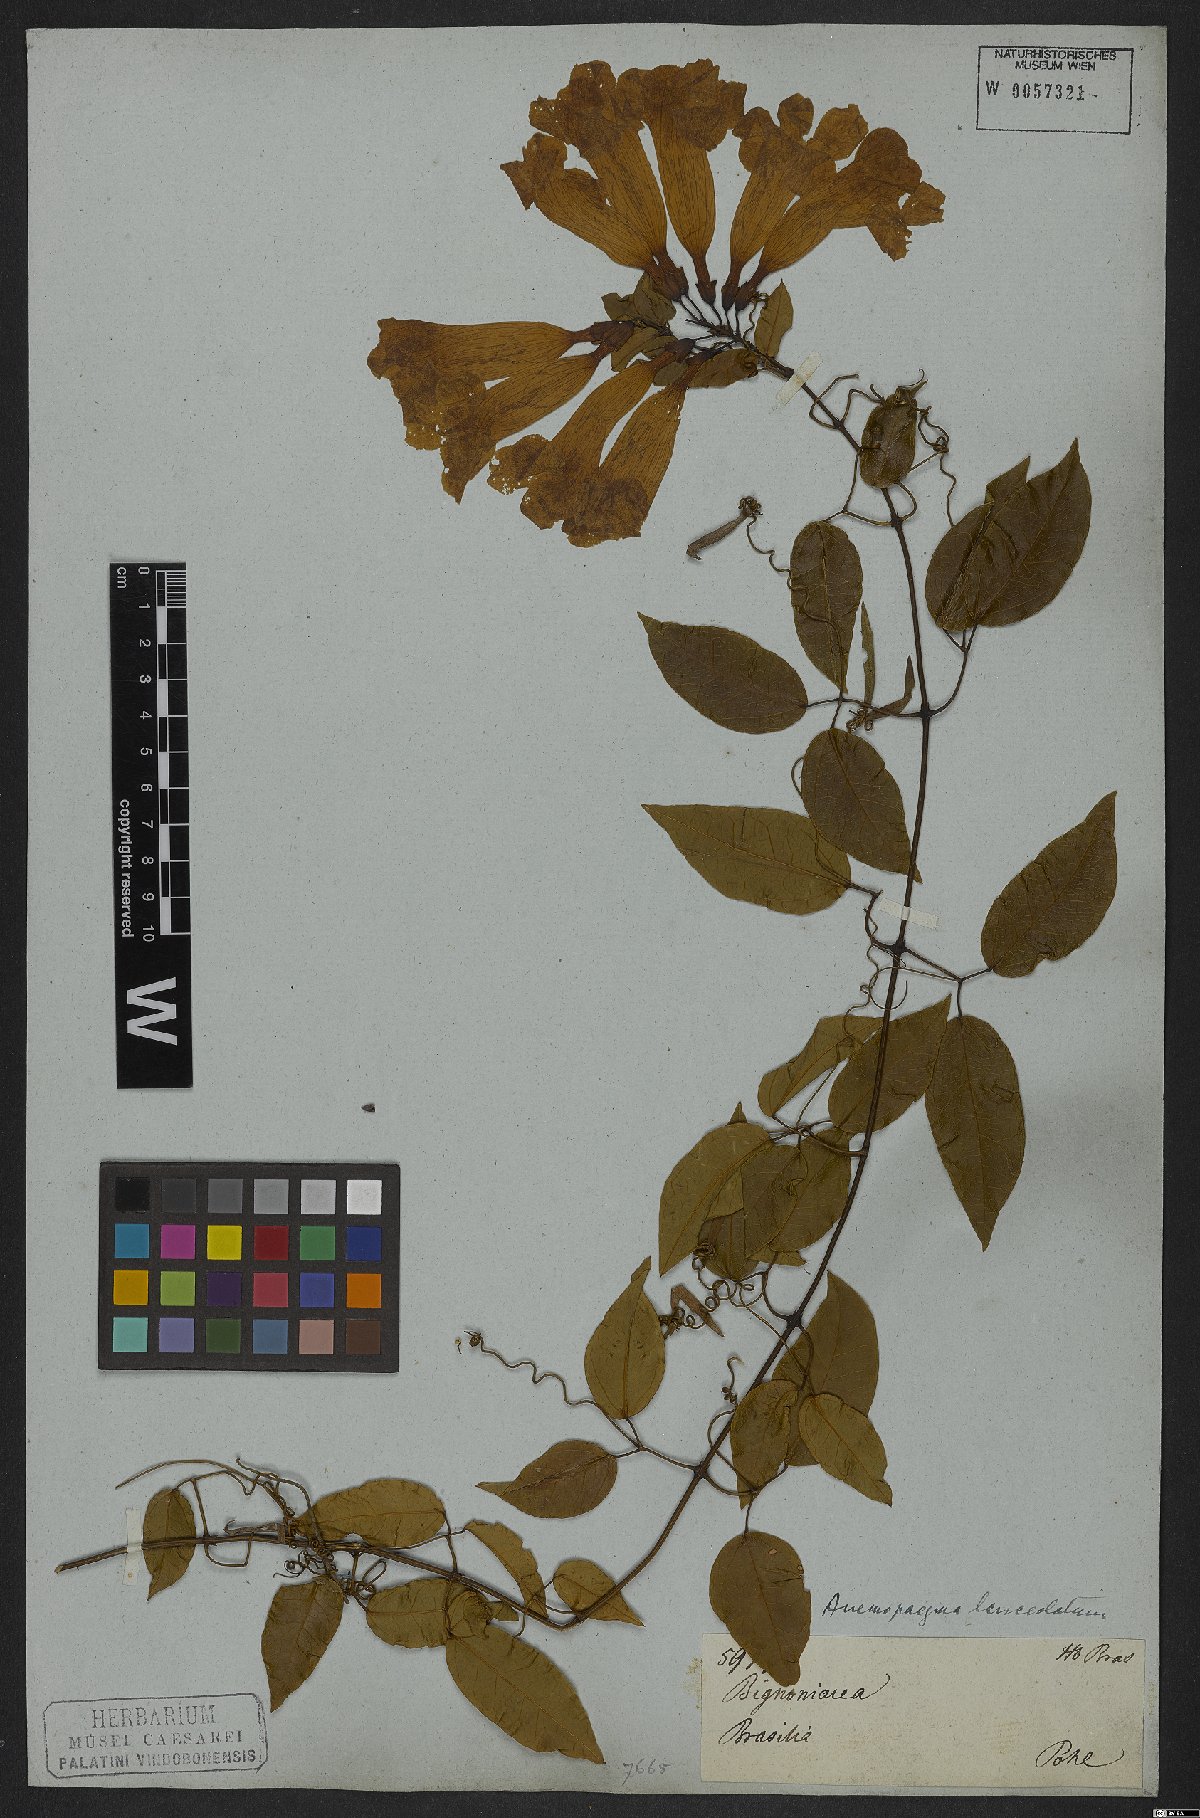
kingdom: Plantae
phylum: Tracheophyta
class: Magnoliopsida
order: Lamiales
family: Bignoniaceae
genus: Mansoa
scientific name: Mansoa lanceolata
